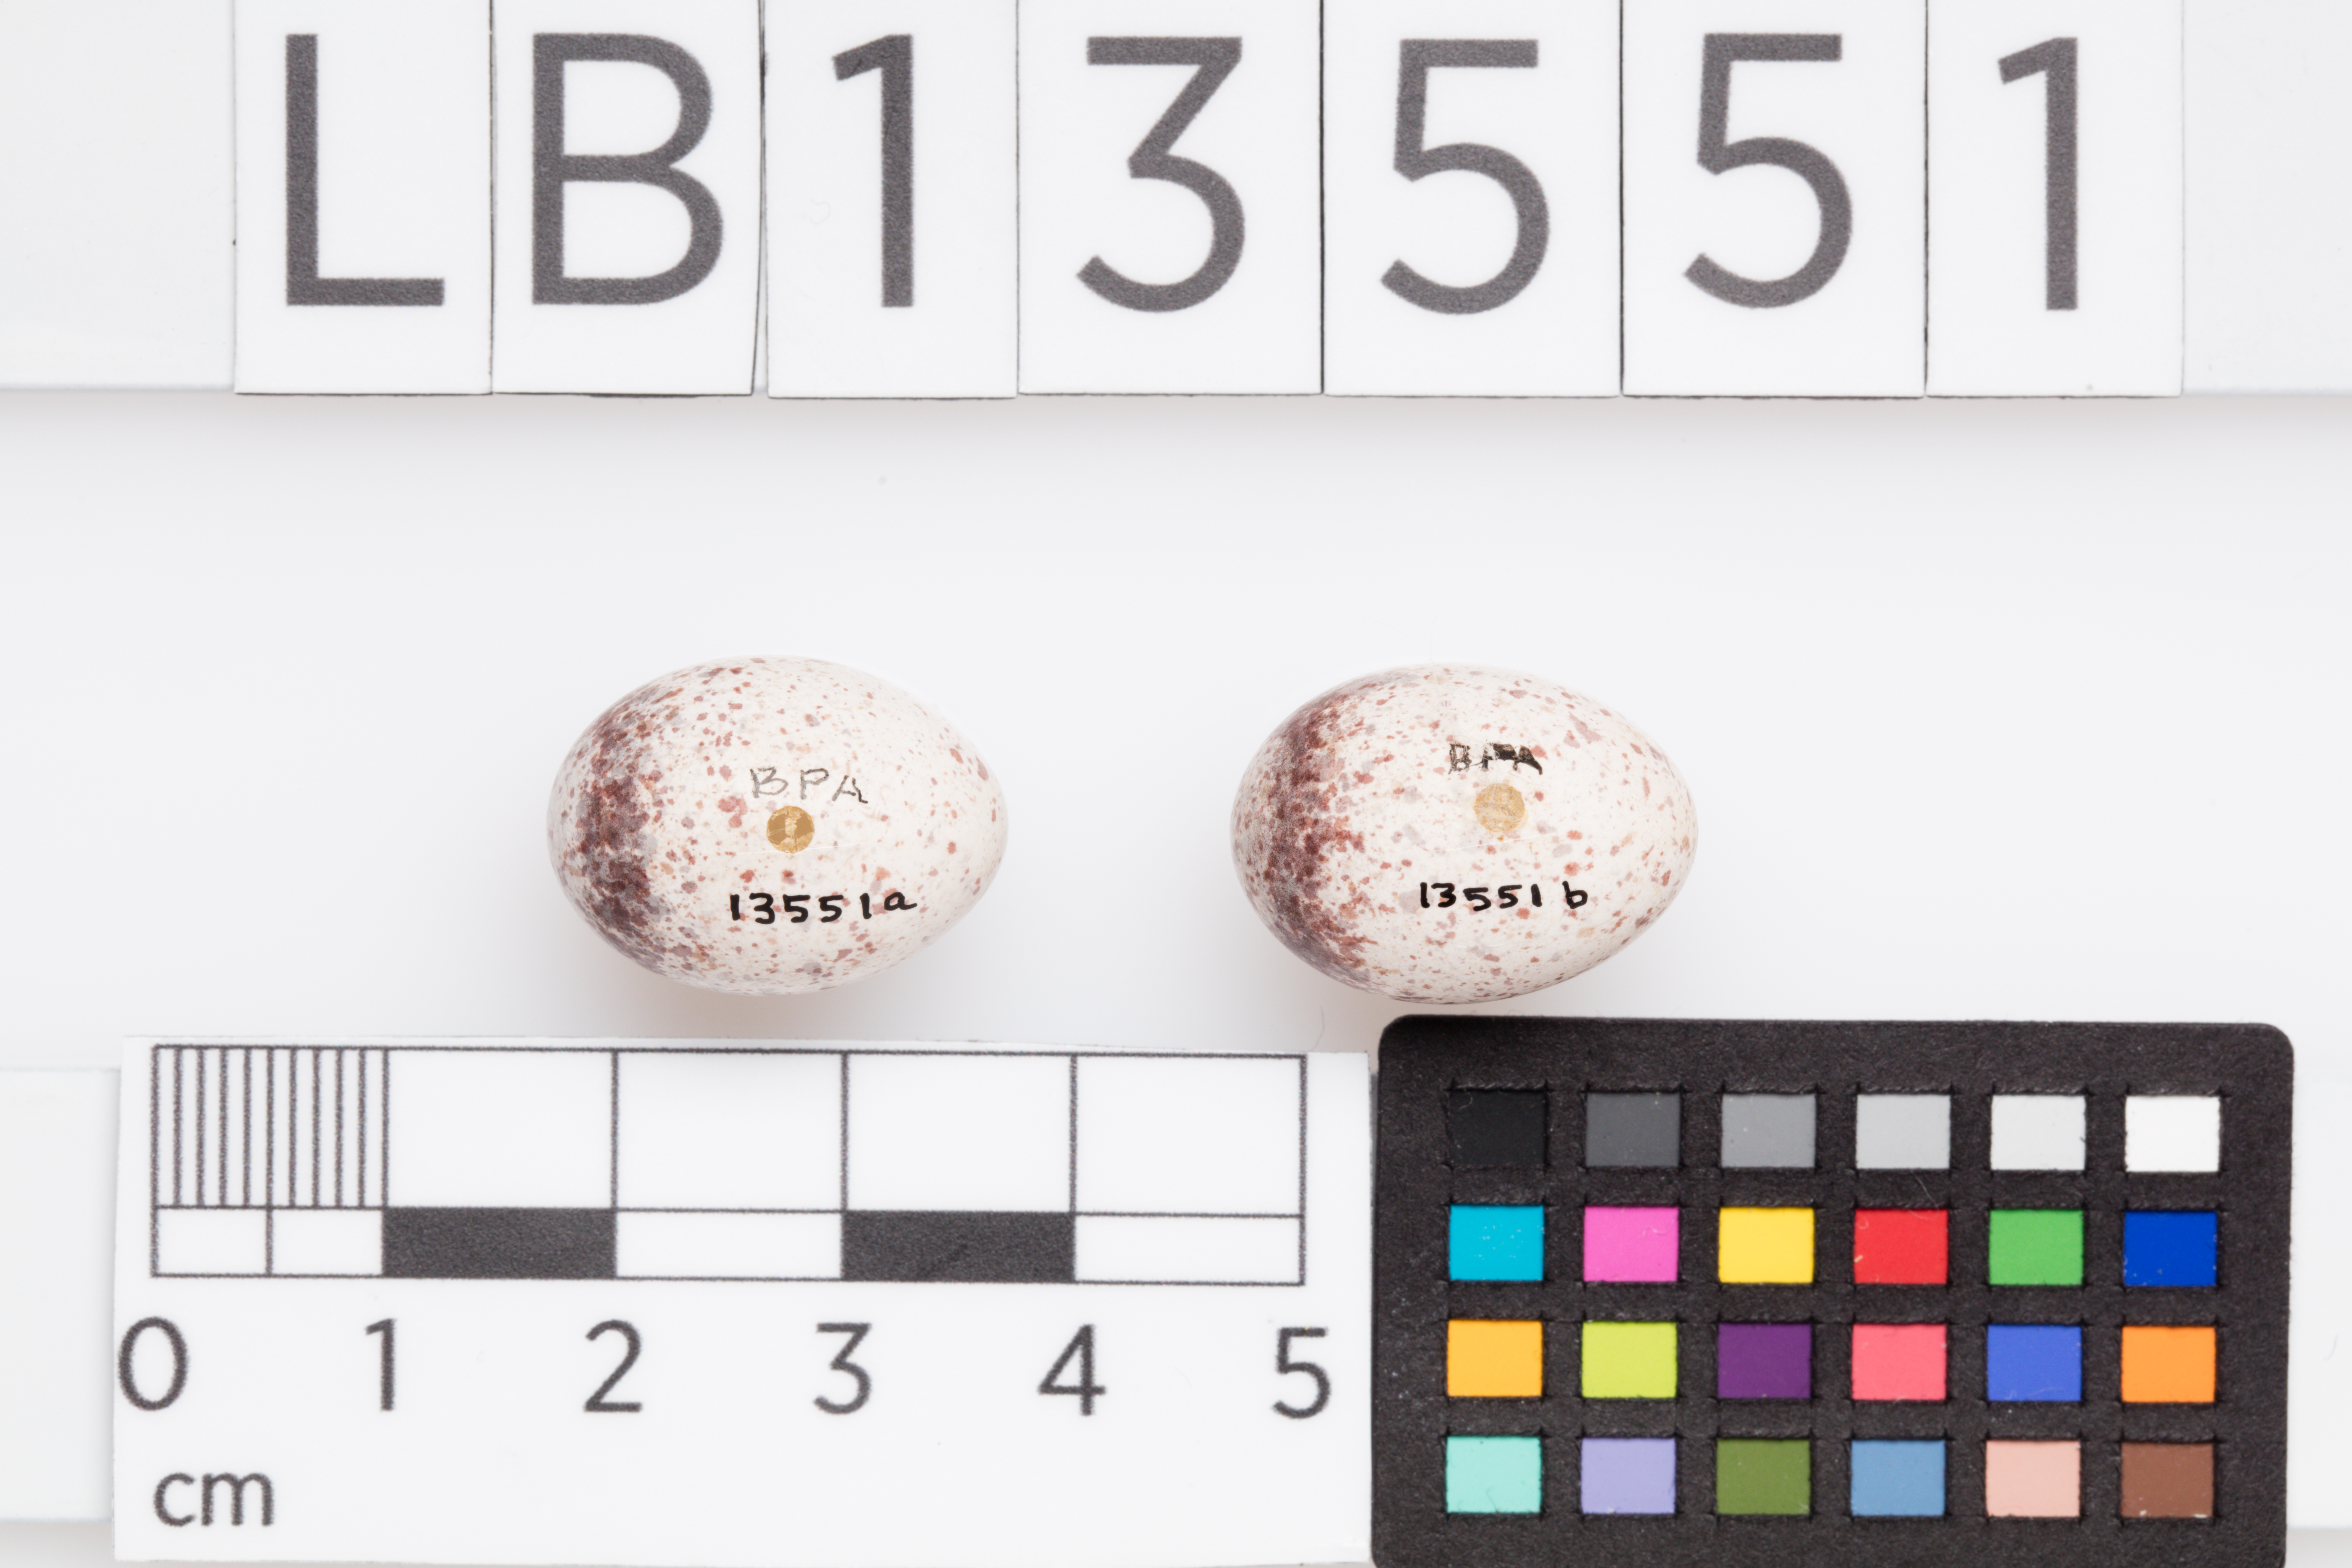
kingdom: Animalia
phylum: Chordata
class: Aves
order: Passeriformes
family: Locustellidae
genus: Megalurus
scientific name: Megalurus punctatus
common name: New zealand fernbird
